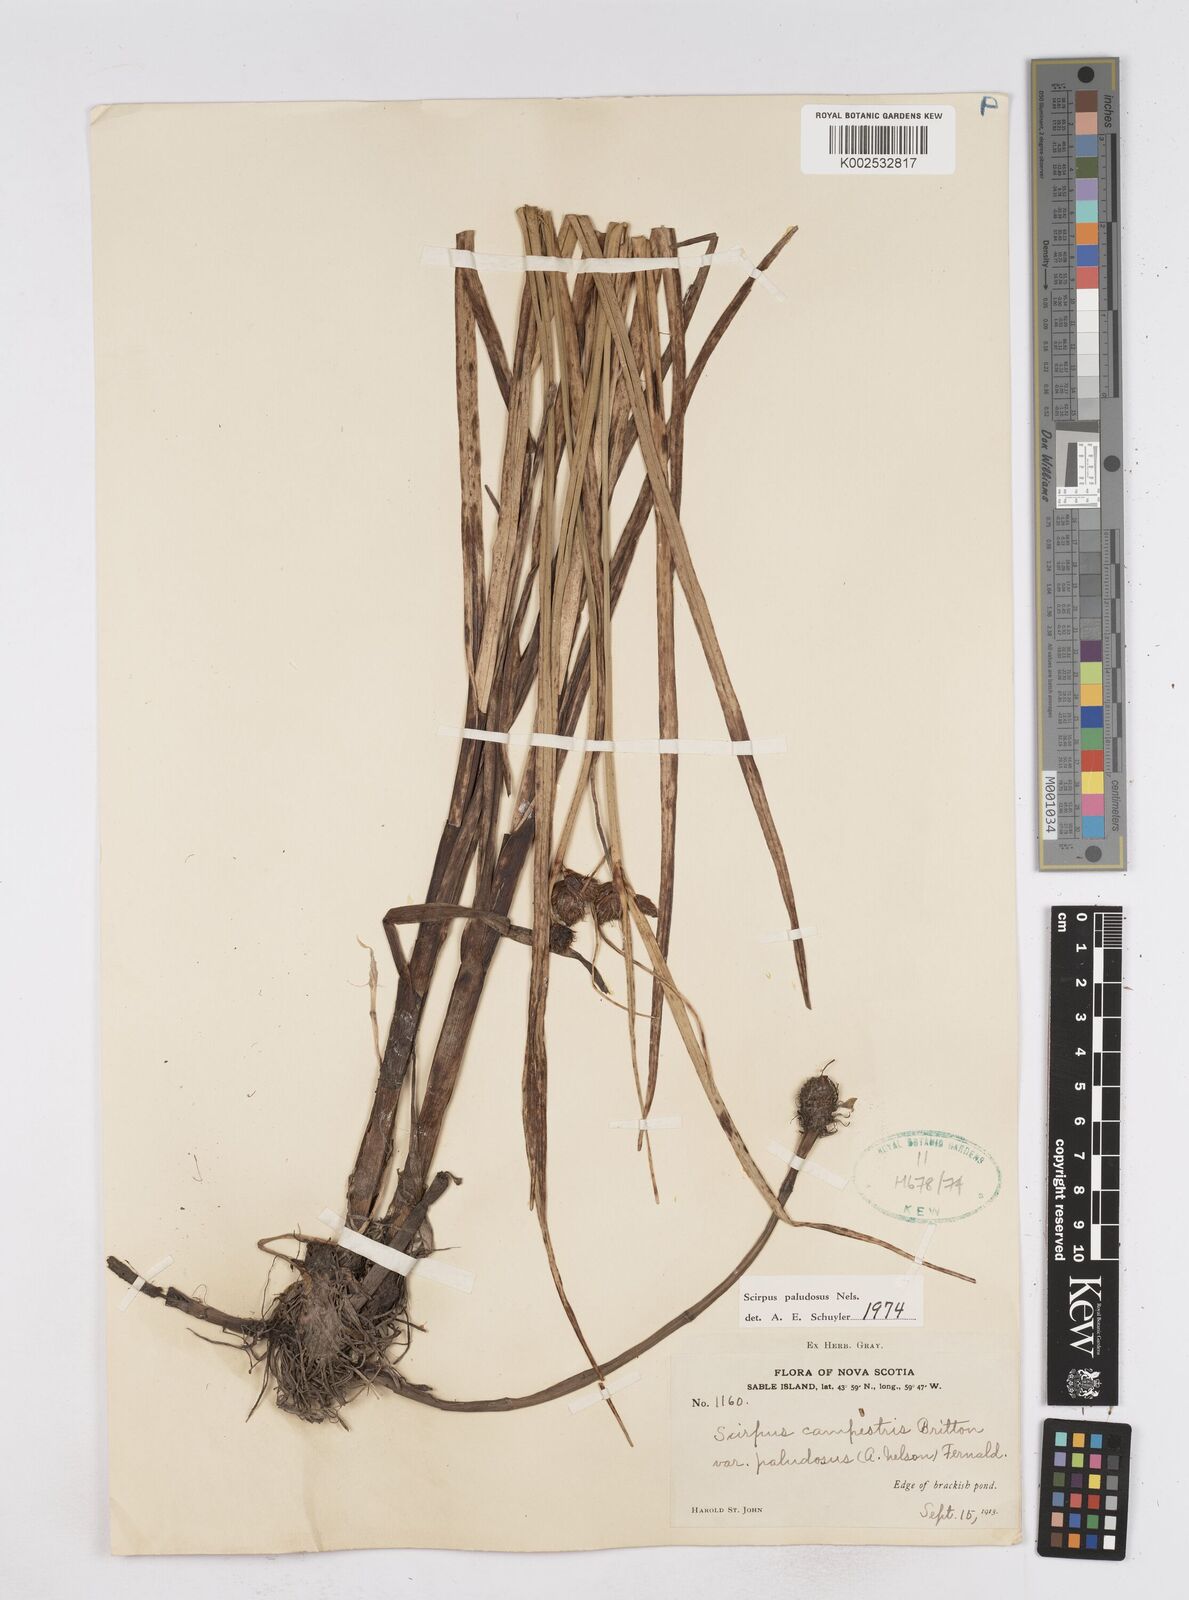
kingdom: Plantae
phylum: Tracheophyta
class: Liliopsida
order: Poales
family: Cyperaceae
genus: Bolboschoenus
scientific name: Bolboschoenus maritimus
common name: Sea club-rush
